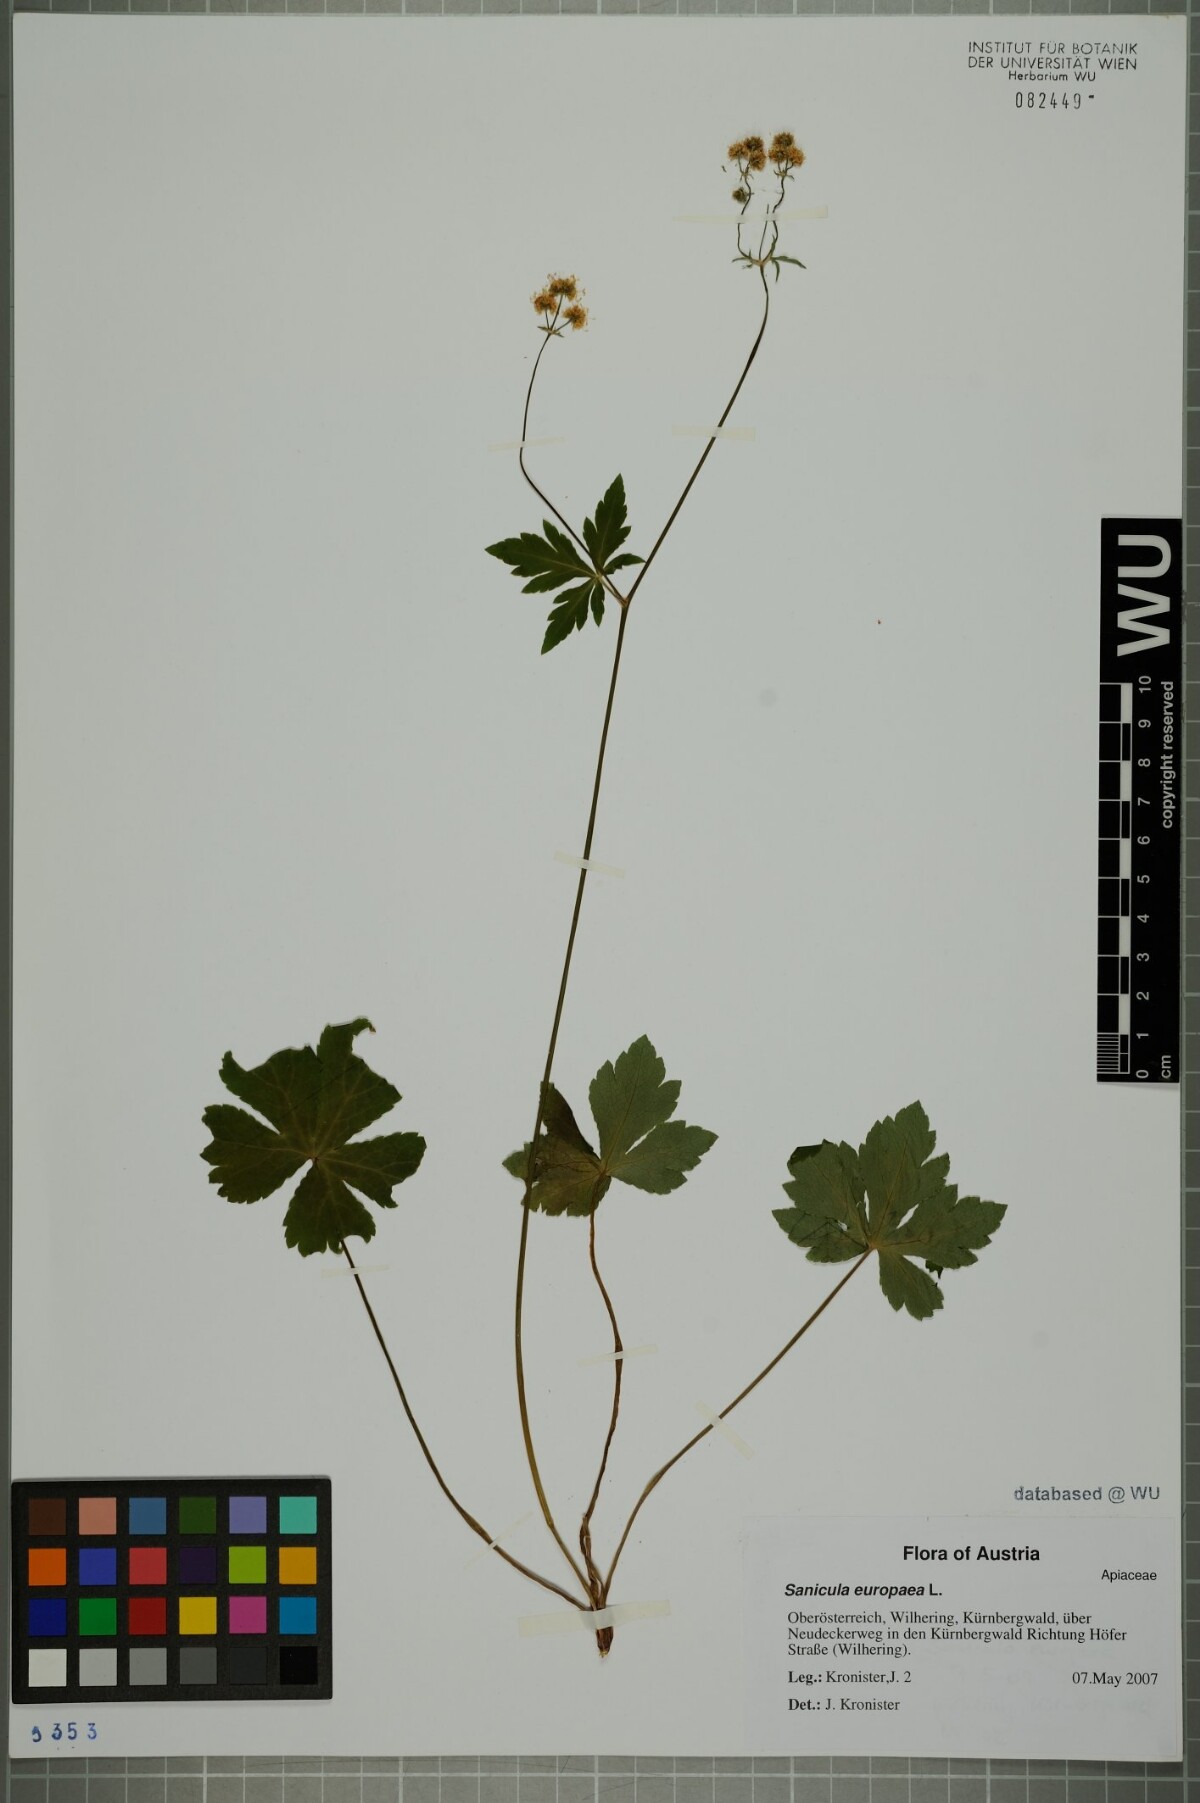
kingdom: Plantae
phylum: Tracheophyta
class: Magnoliopsida
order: Apiales
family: Apiaceae
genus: Sanicula
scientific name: Sanicula europaea
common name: Sanicle
